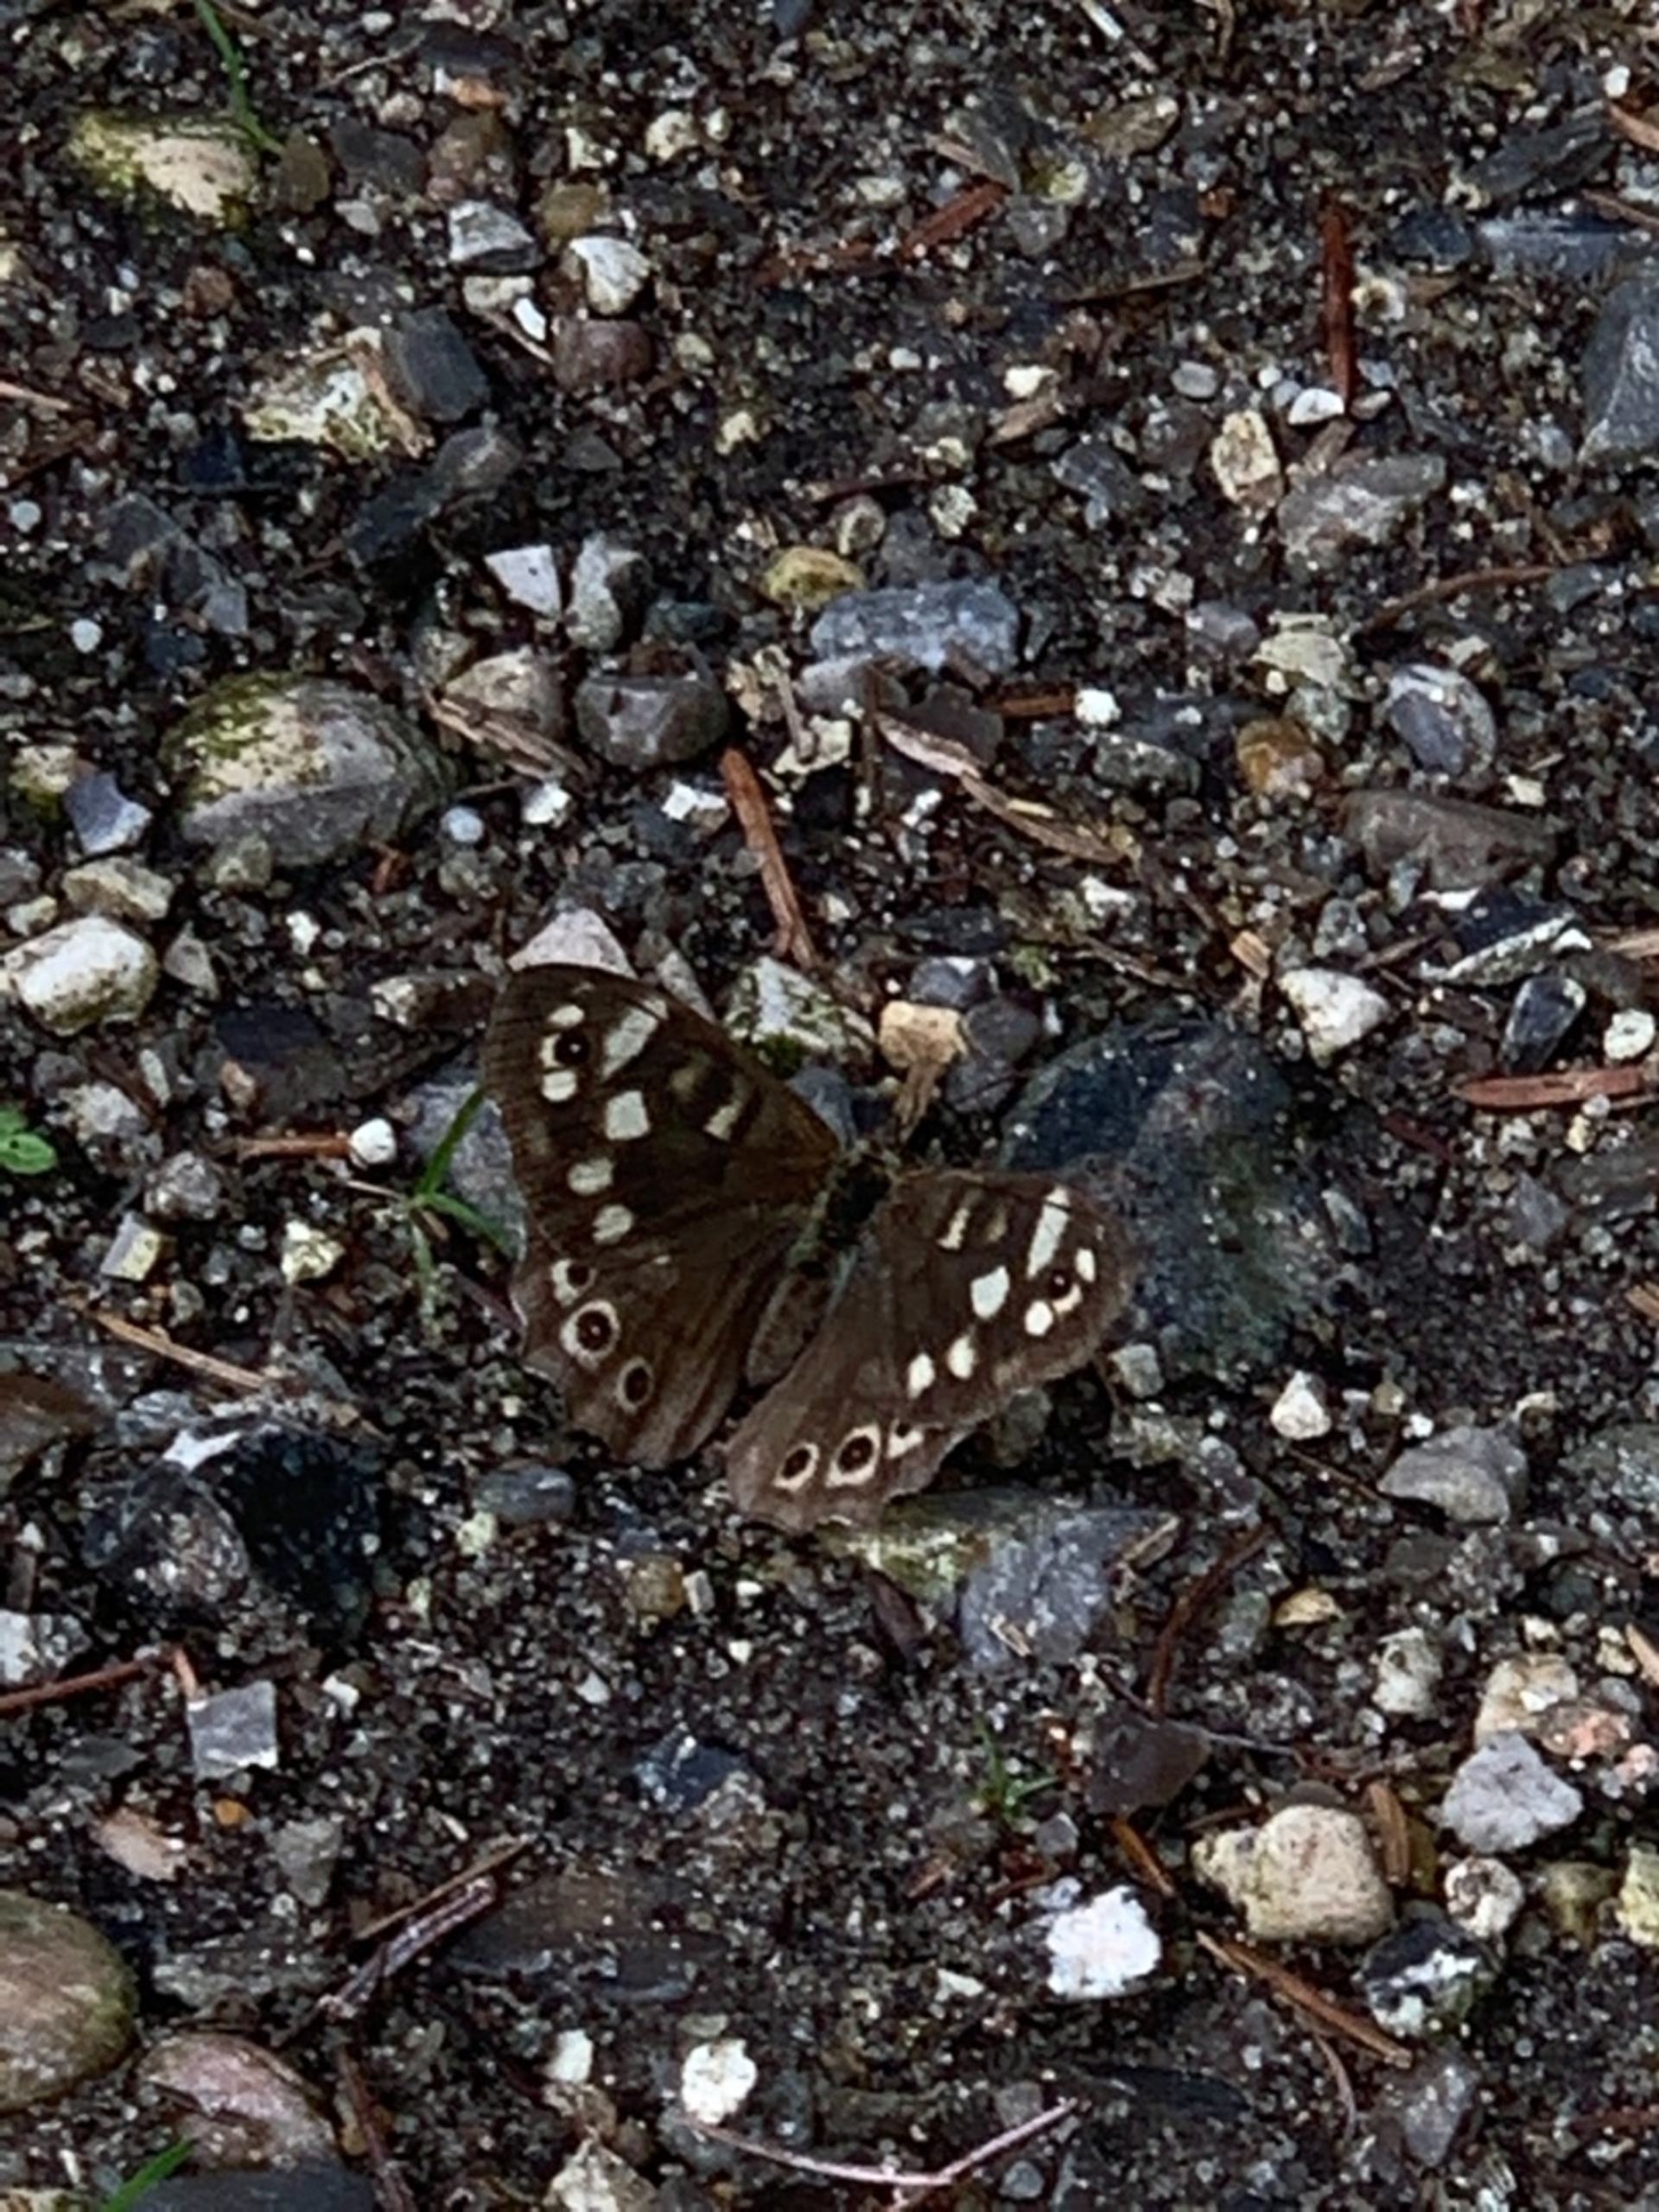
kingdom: Animalia
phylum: Arthropoda
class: Insecta
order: Lepidoptera
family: Nymphalidae
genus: Pararge
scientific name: Pararge aegeria
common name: Skovrandøje
